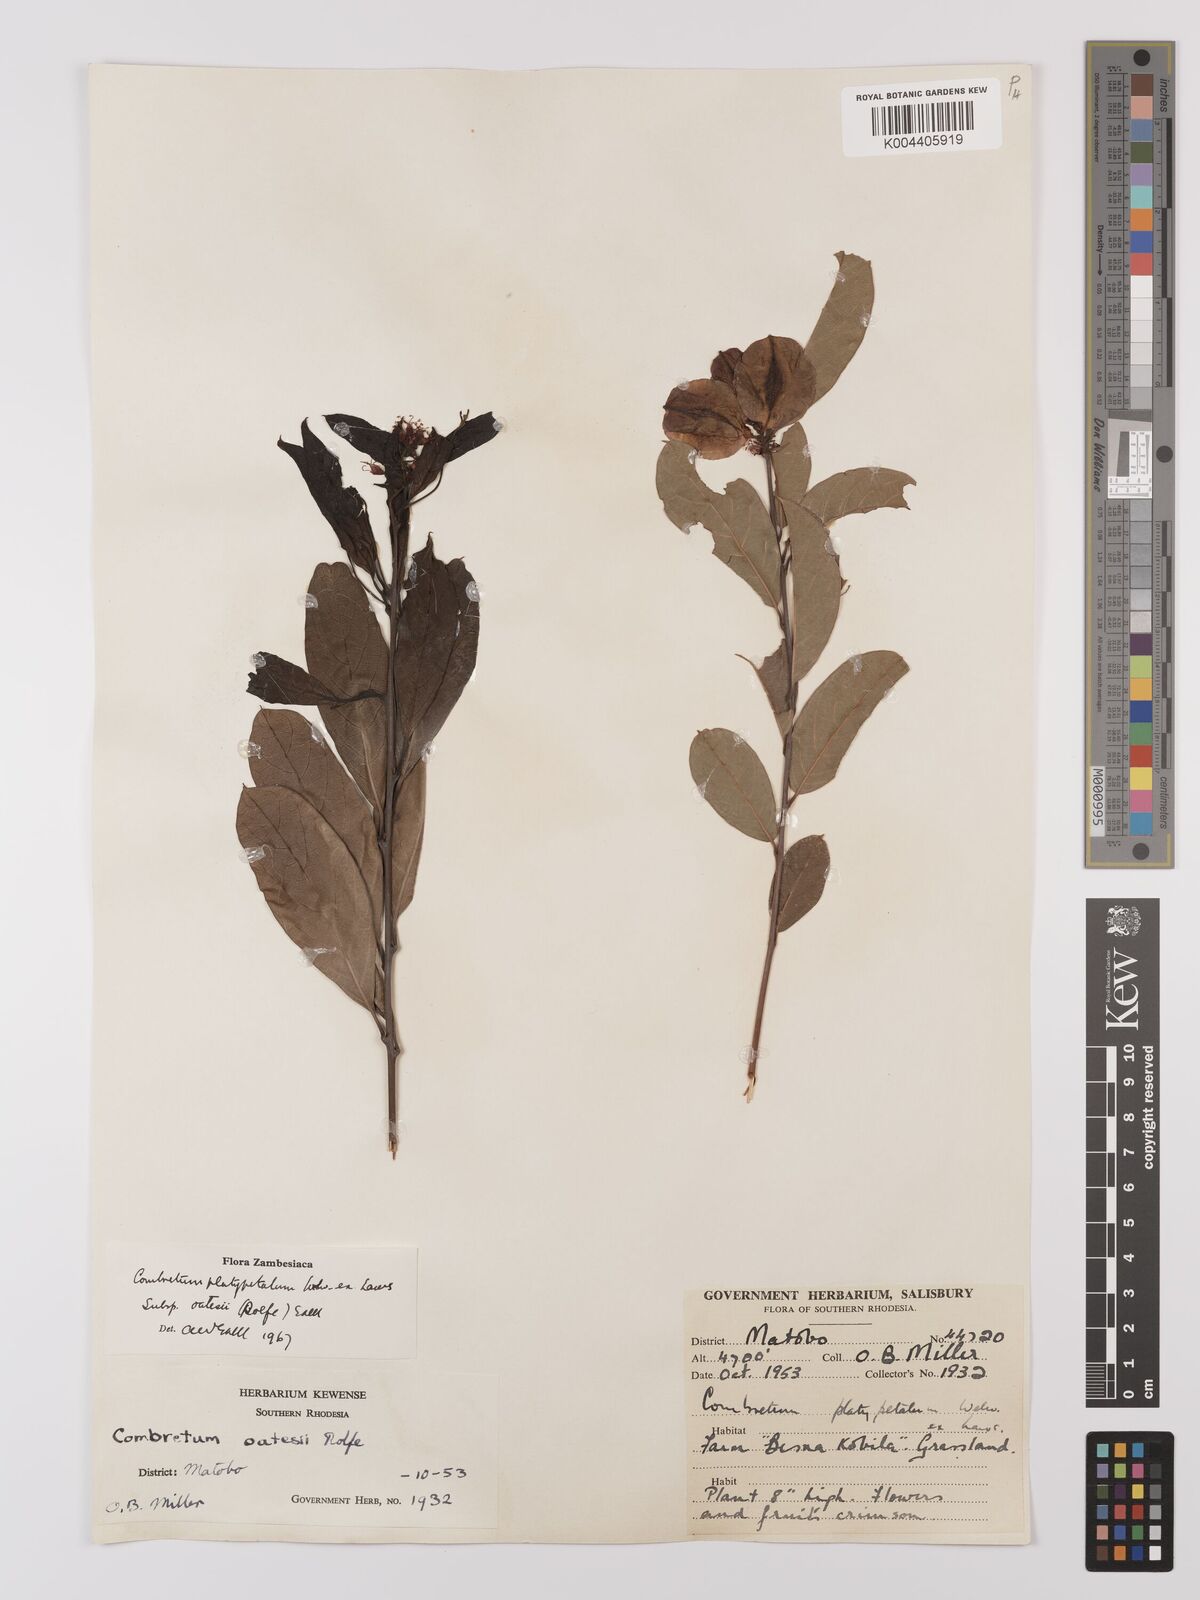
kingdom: Plantae
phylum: Tracheophyta
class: Magnoliopsida
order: Myrtales
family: Combretaceae
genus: Combretum
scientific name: Combretum platypetalum
